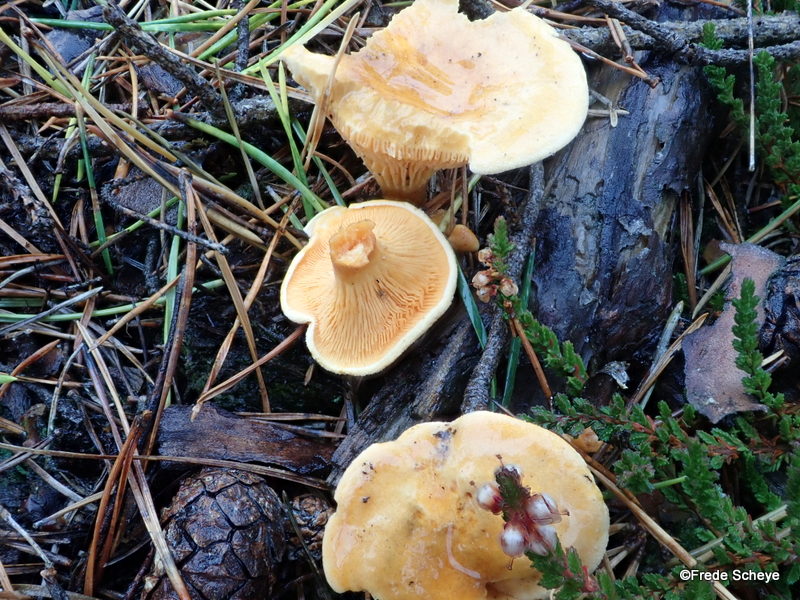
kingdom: Fungi
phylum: Basidiomycota
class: Agaricomycetes
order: Boletales
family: Hygrophoropsidaceae
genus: Hygrophoropsis
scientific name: Hygrophoropsis aurantiaca
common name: almindelig orangekantarel
